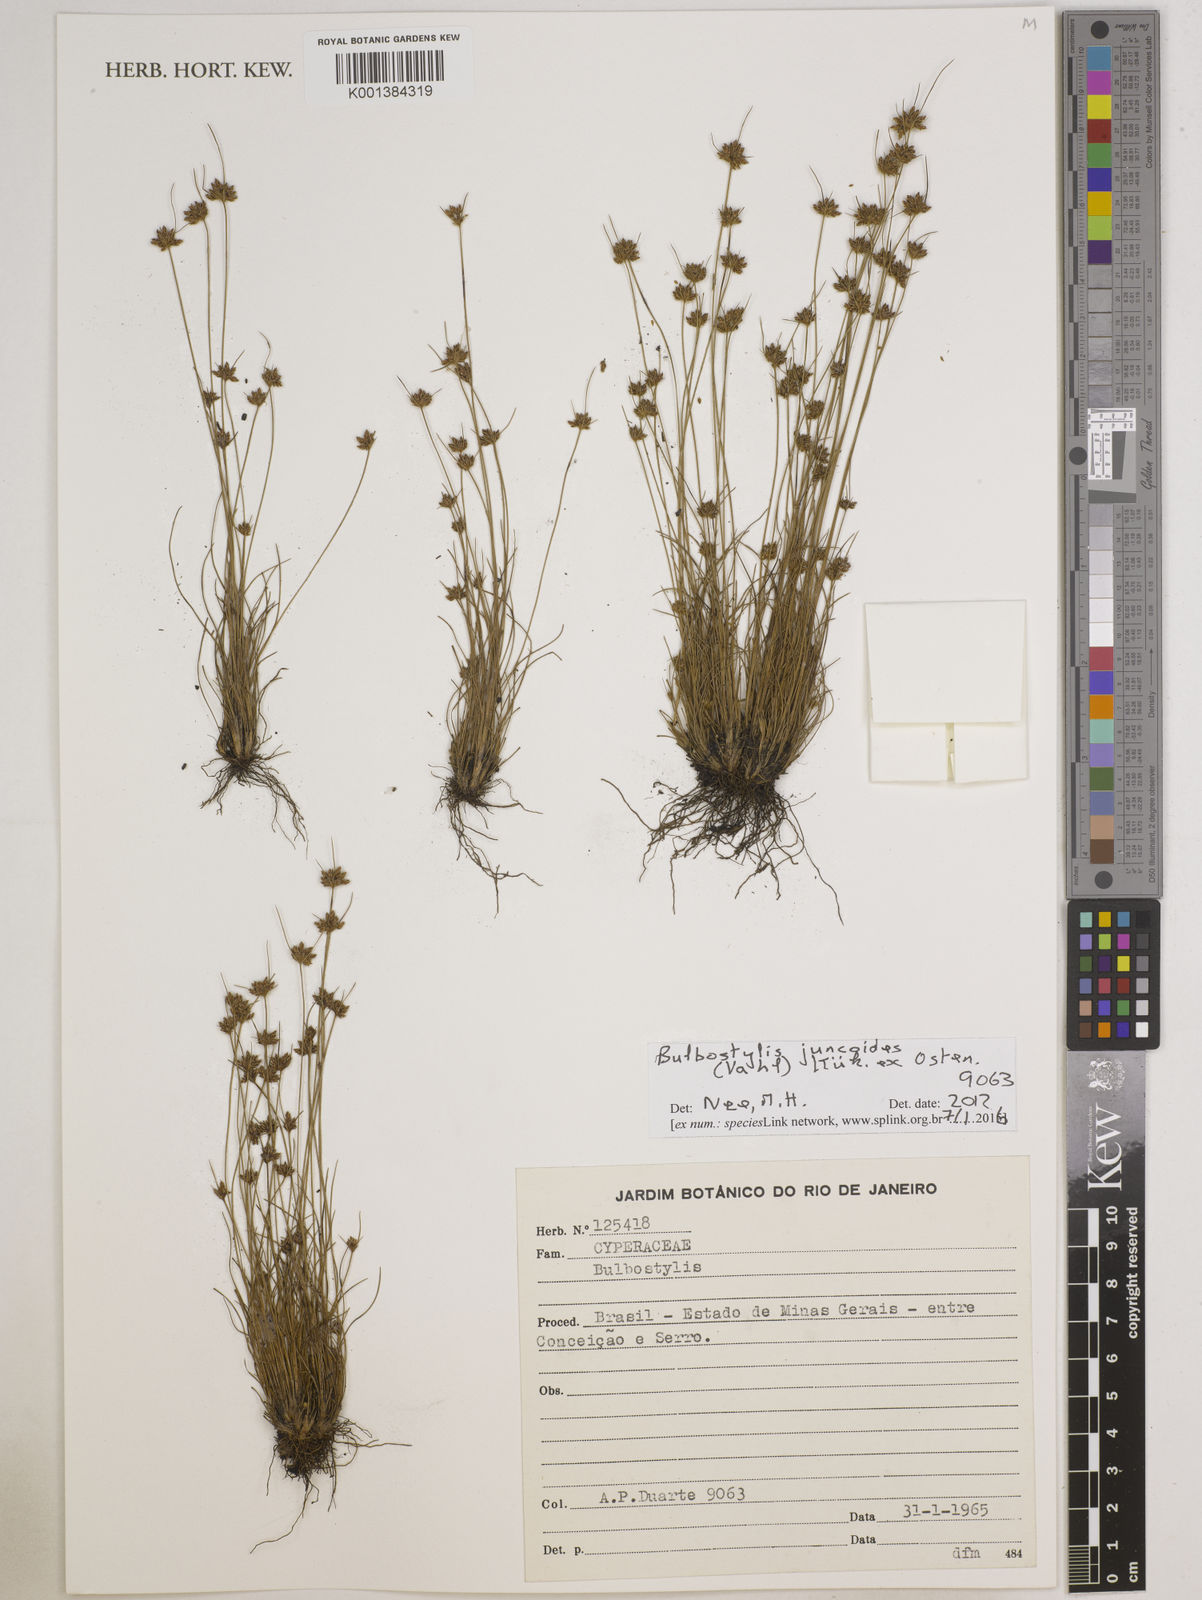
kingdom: Plantae
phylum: Tracheophyta
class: Liliopsida
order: Poales
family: Cyperaceae
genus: Bulbostylis
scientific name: Bulbostylis juncoides
